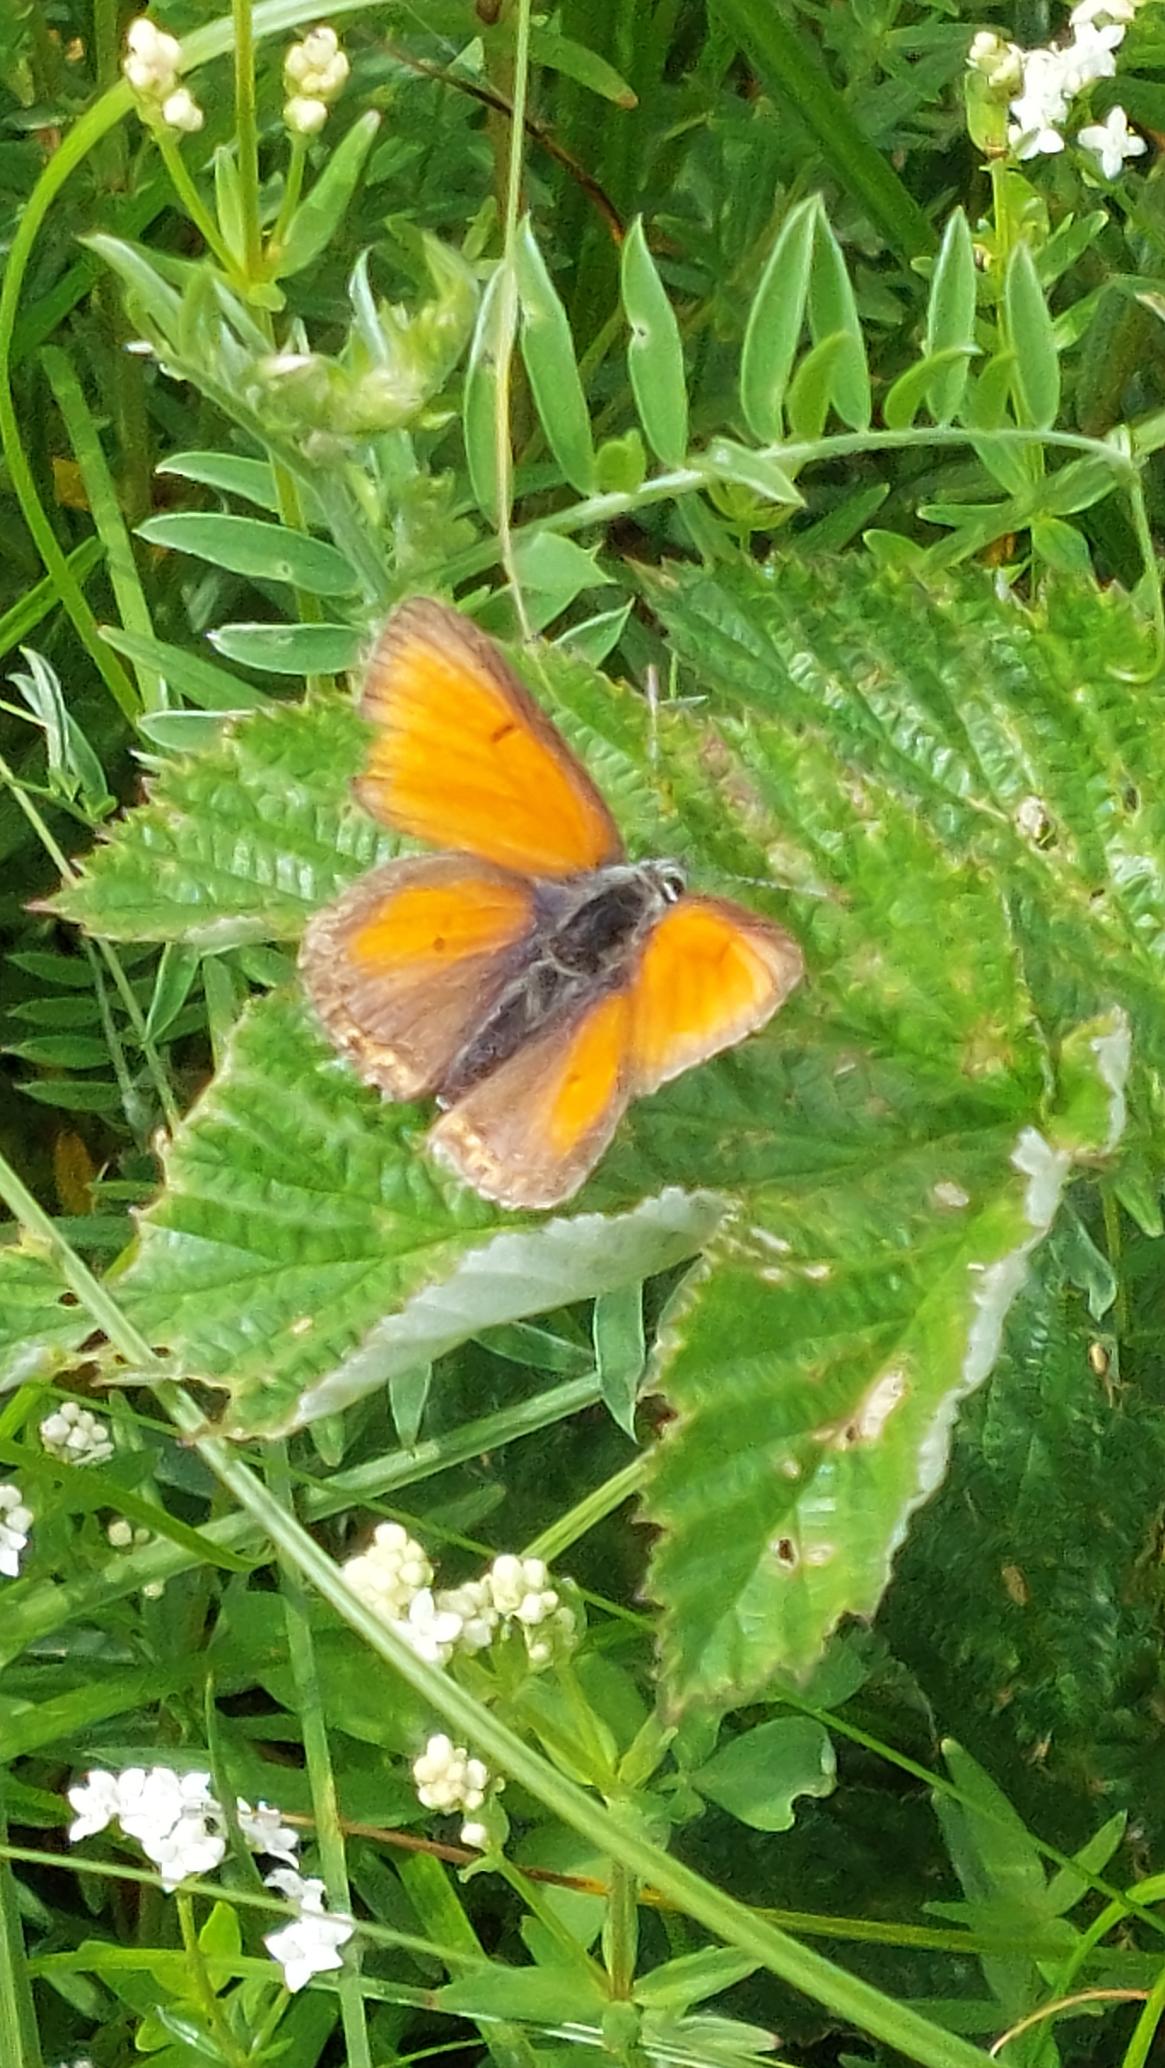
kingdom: Animalia
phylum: Arthropoda
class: Insecta
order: Lepidoptera
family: Lycaenidae
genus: Palaeochrysophanus
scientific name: Palaeochrysophanus hippothoe
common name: Violetrandet ildfugl
